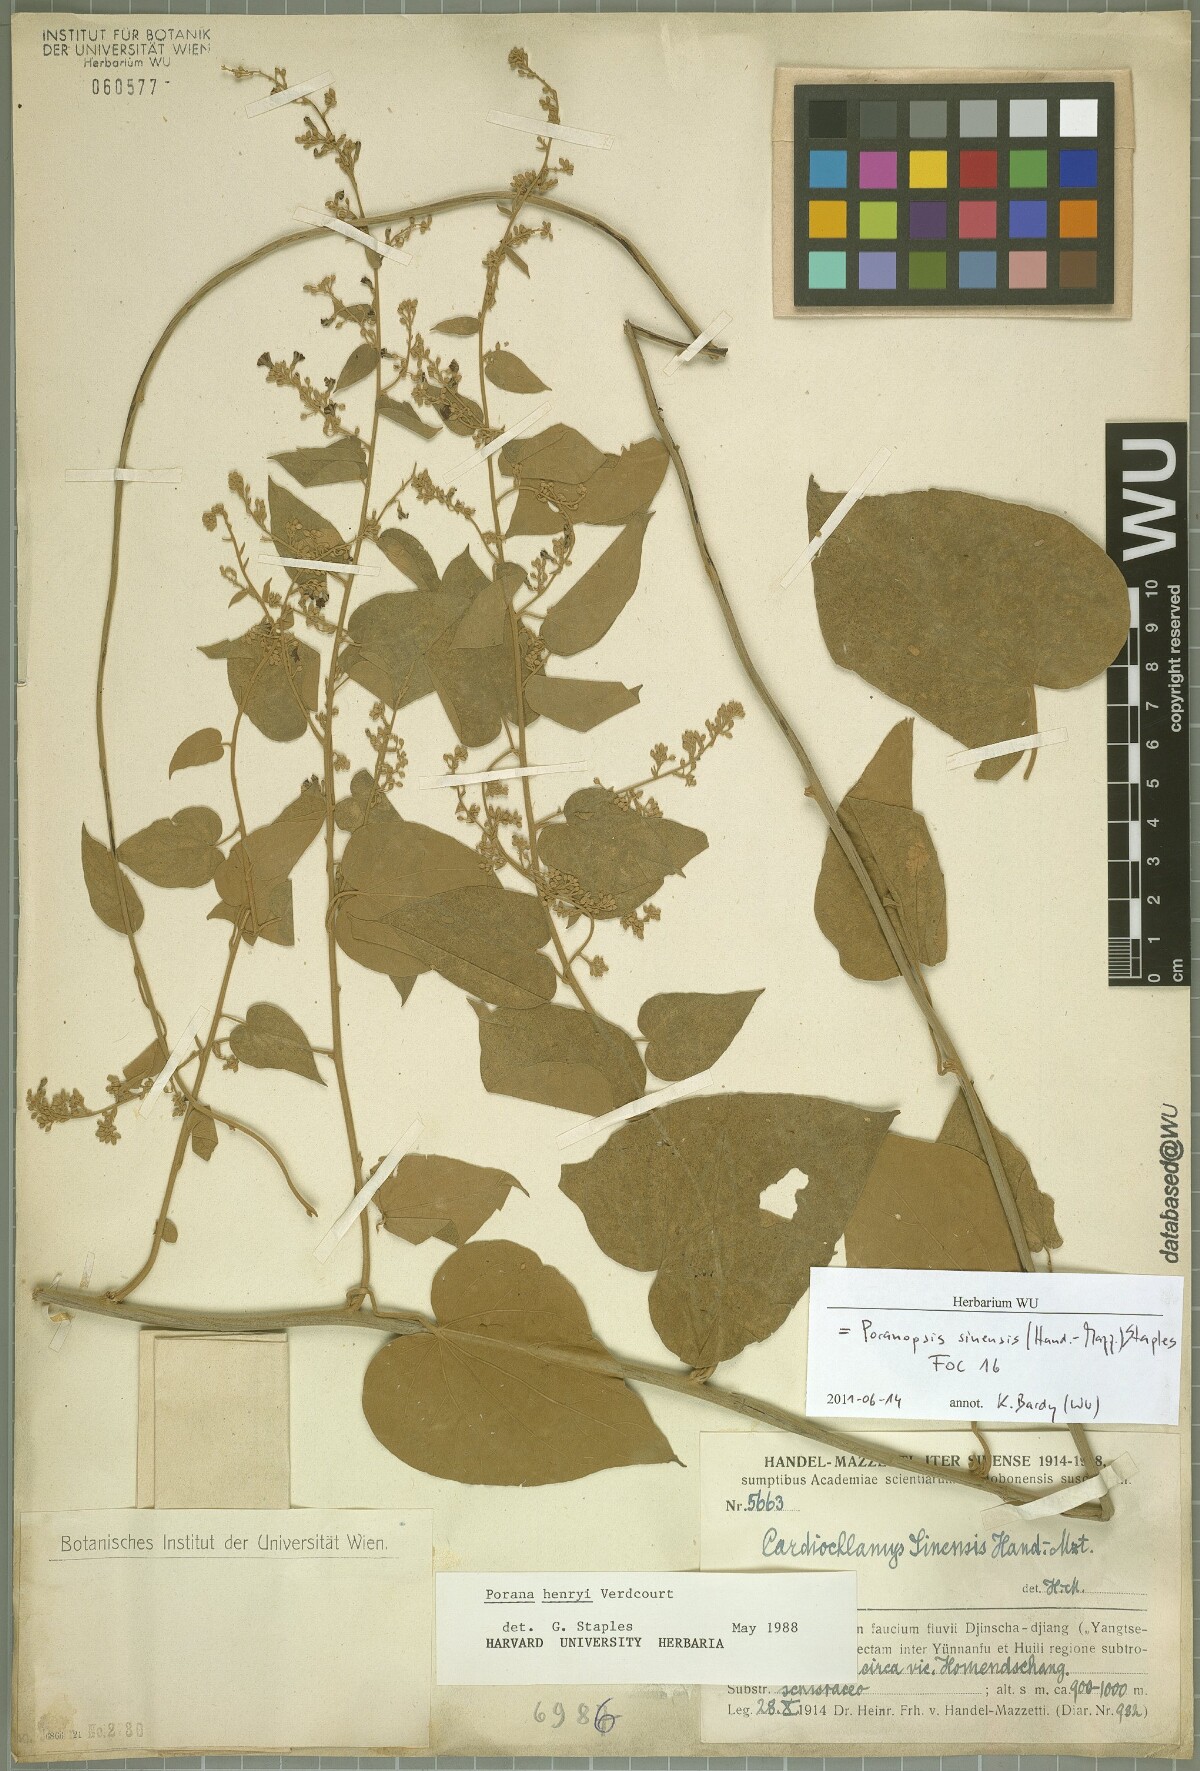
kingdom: Plantae
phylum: Tracheophyta
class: Magnoliopsida
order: Solanales
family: Convolvulaceae
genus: Poranopsis
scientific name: Poranopsis sinensis
